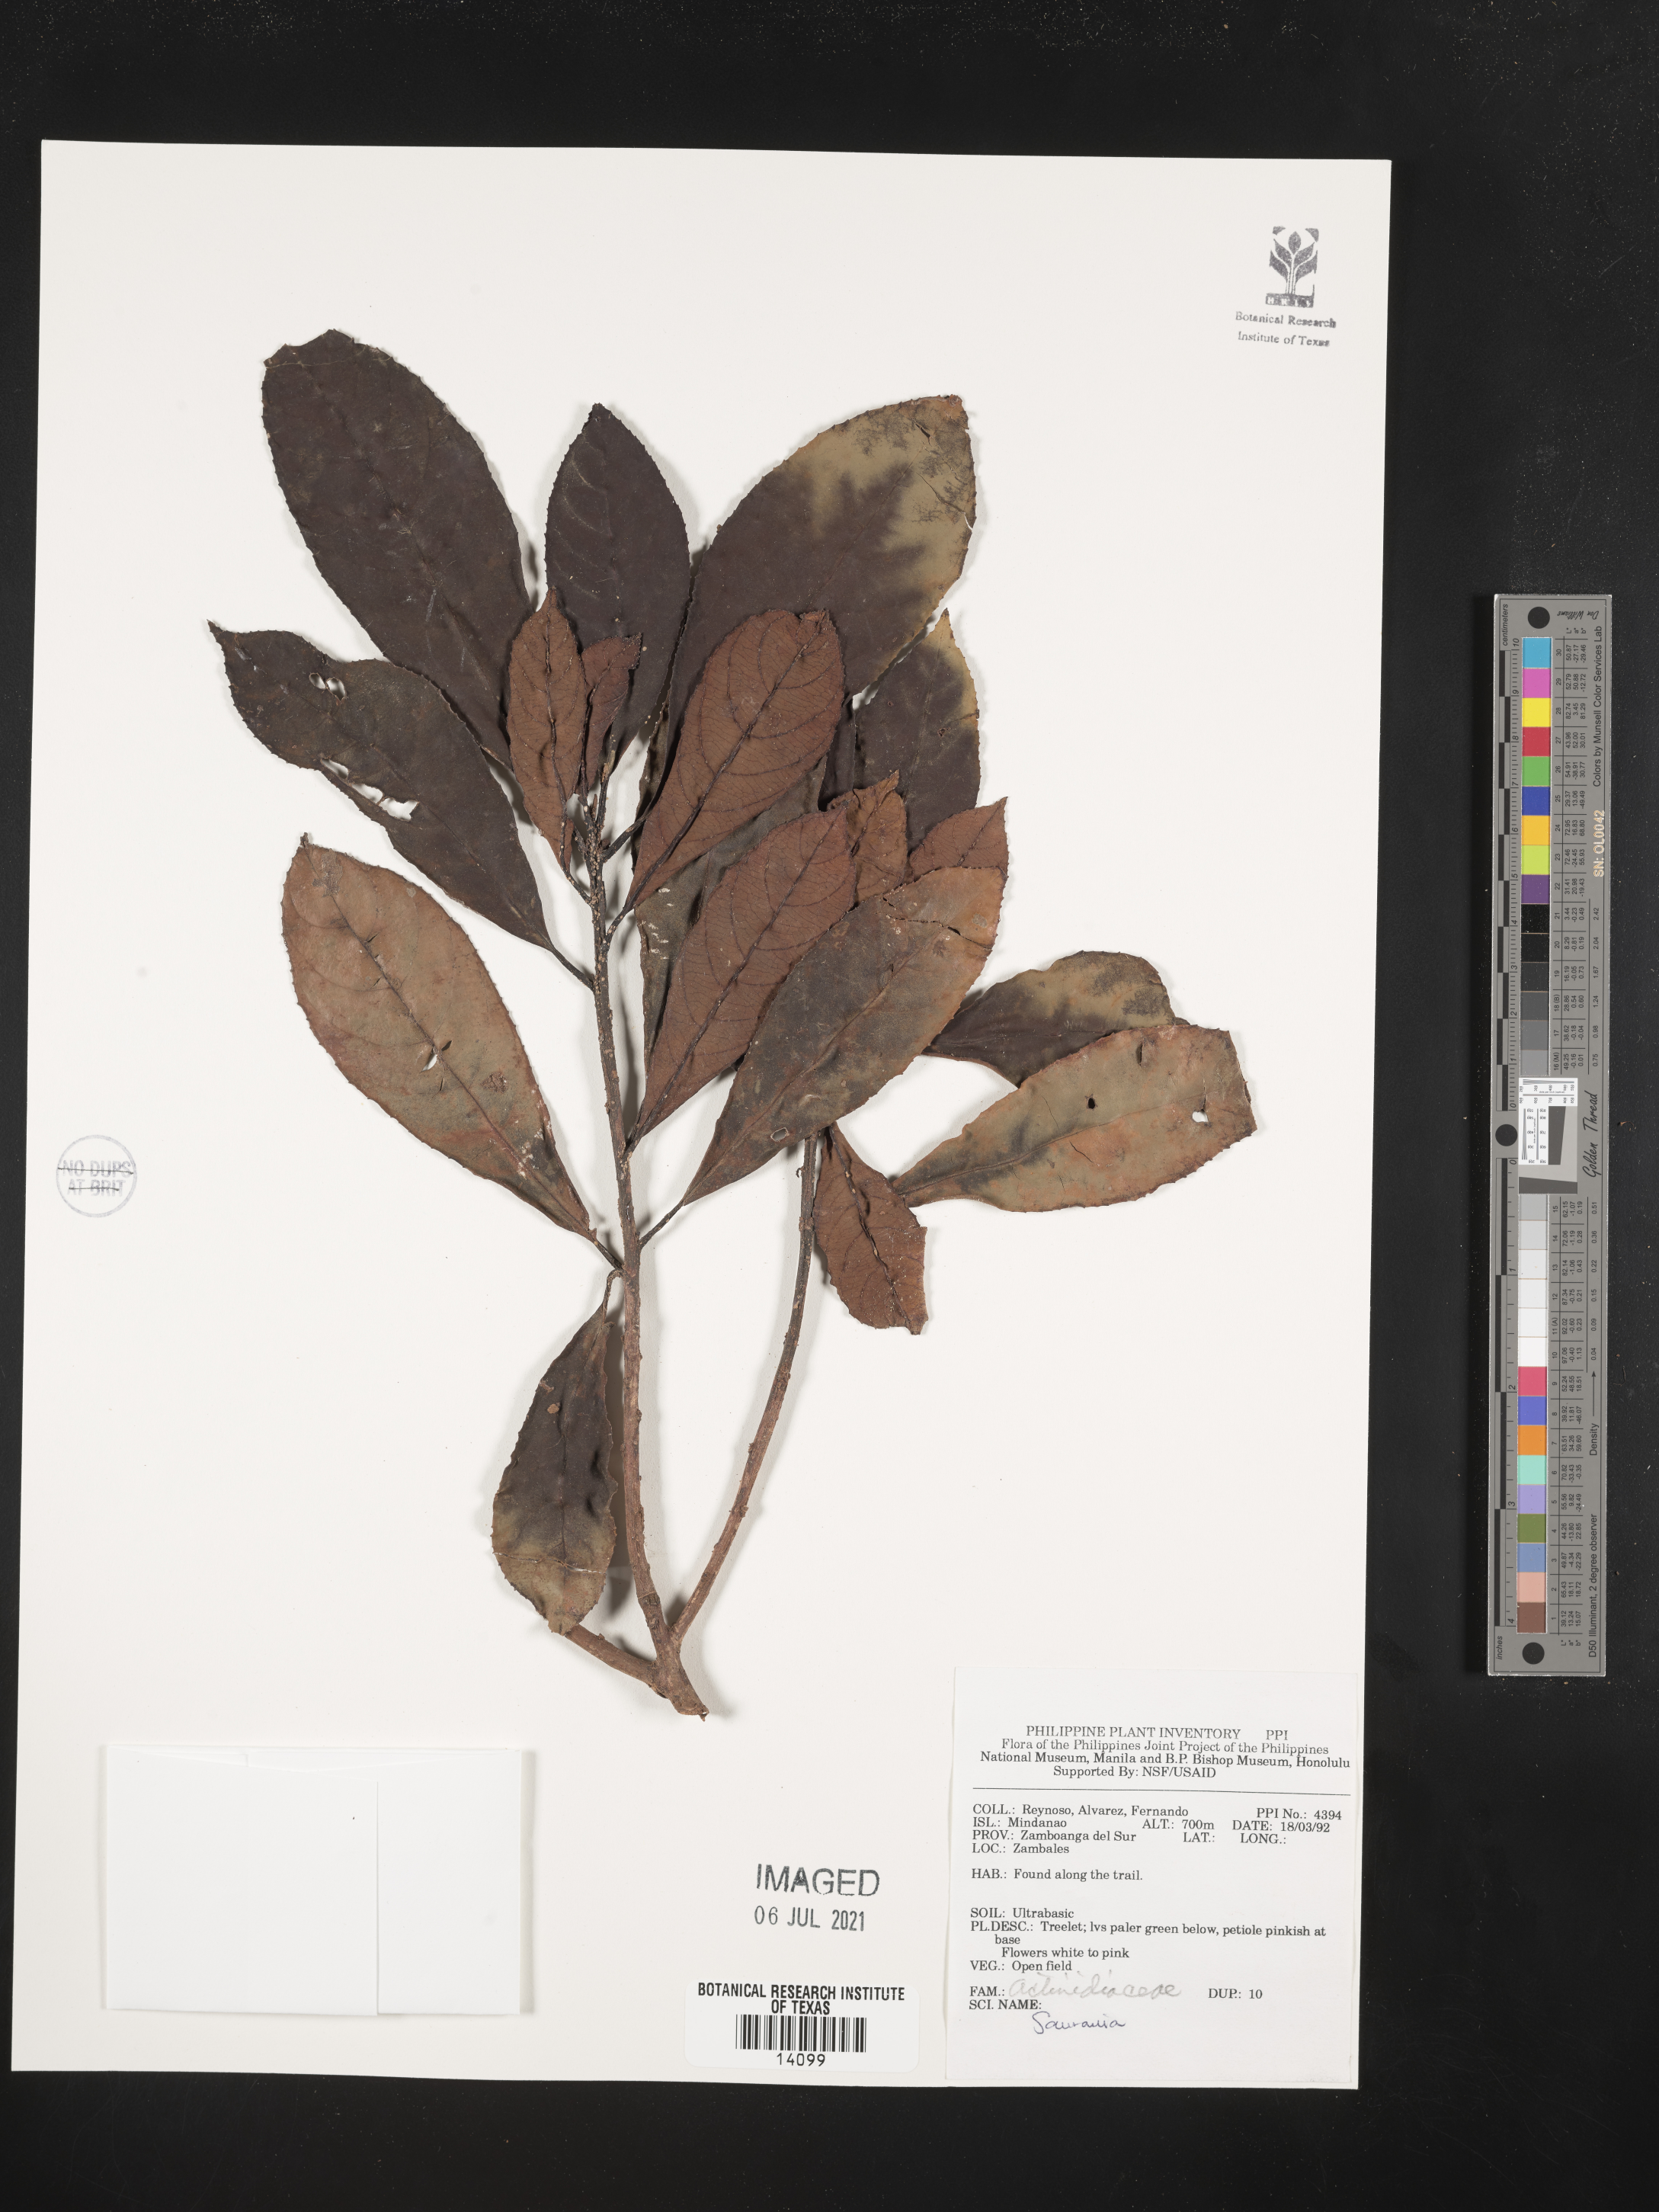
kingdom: Plantae
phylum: Tracheophyta
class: Magnoliopsida
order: Ericales
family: Actinidiaceae
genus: Saurauia
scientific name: Saurauia
